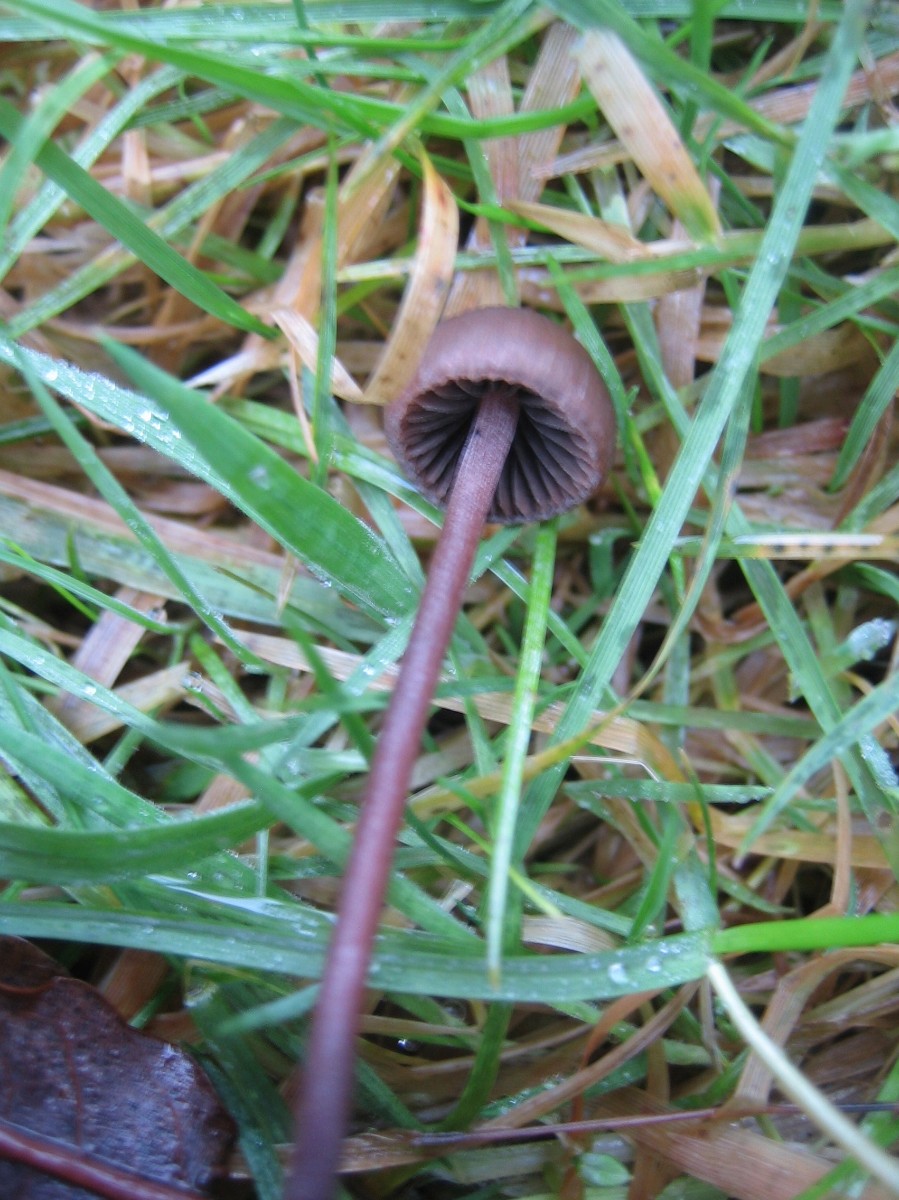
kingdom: Fungi
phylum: Basidiomycota
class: Agaricomycetes
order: Agaricales
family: Bolbitiaceae
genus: Panaeolus
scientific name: Panaeolus
